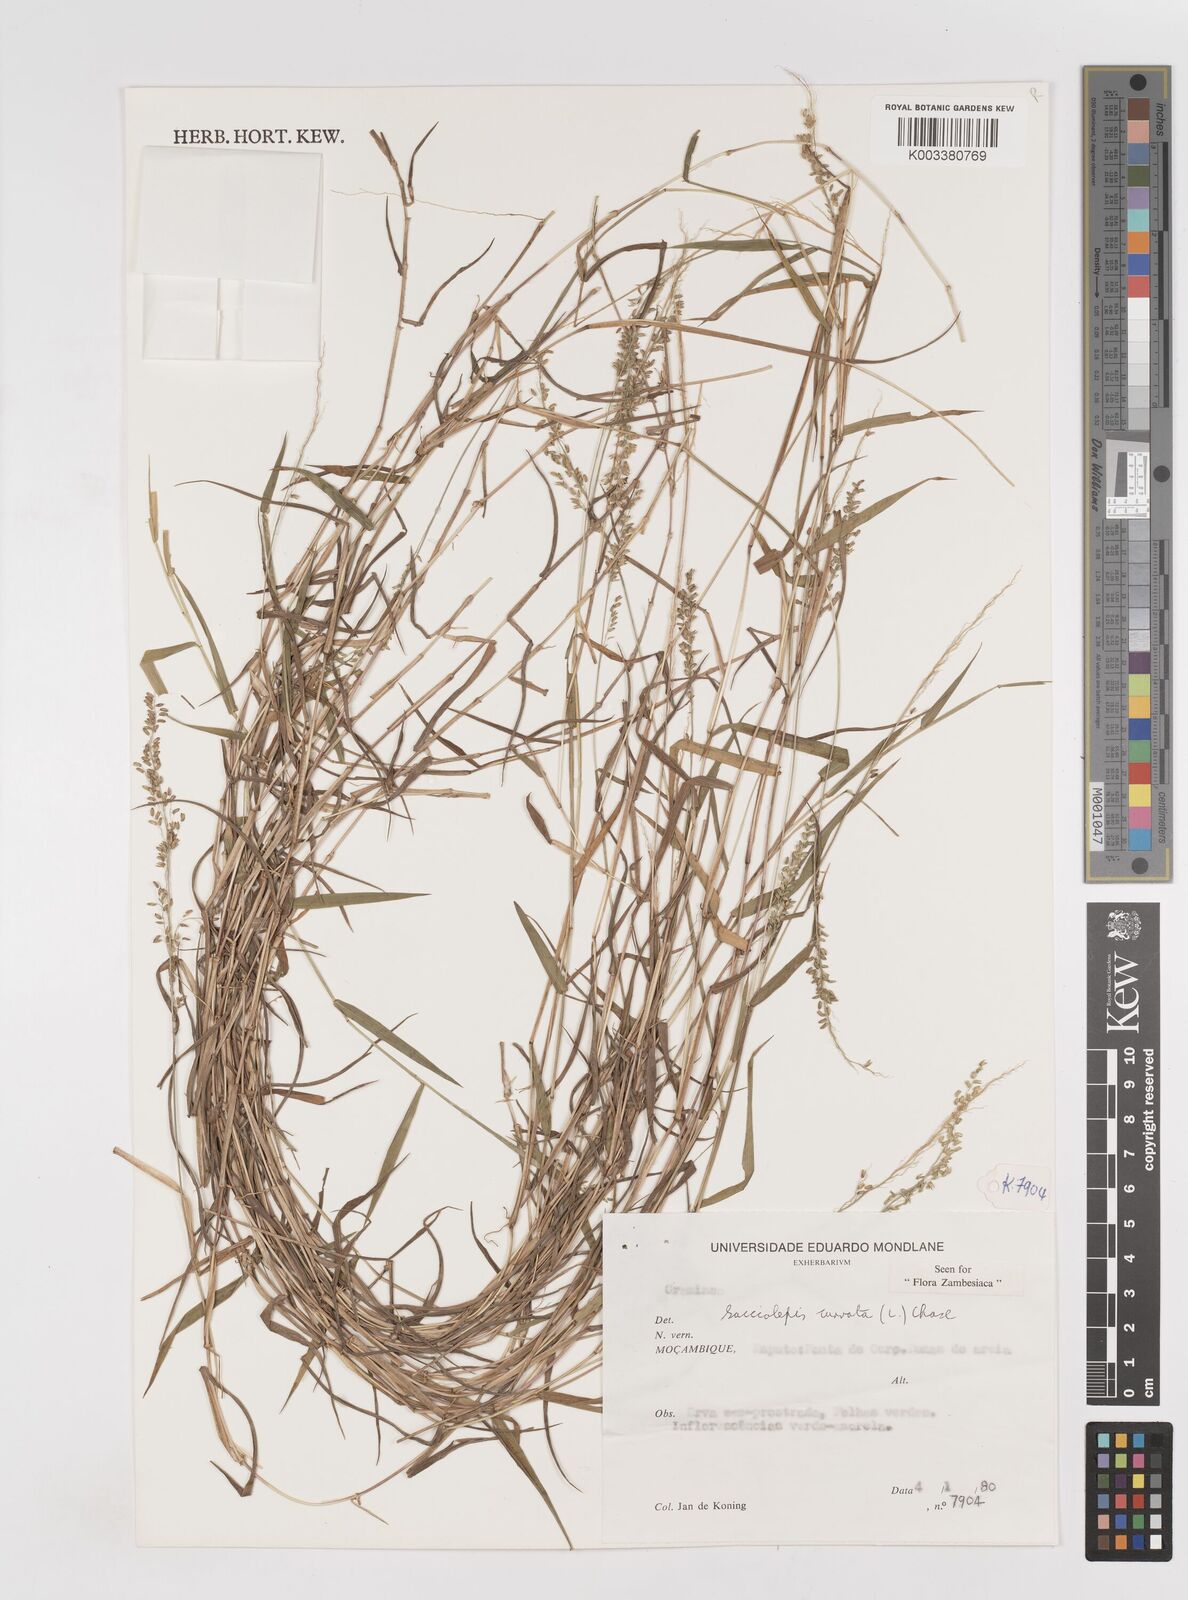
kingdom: Plantae
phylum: Tracheophyta
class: Liliopsida
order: Poales
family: Poaceae
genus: Sacciolepis
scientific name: Sacciolepis curvata
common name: Forest hood grass
